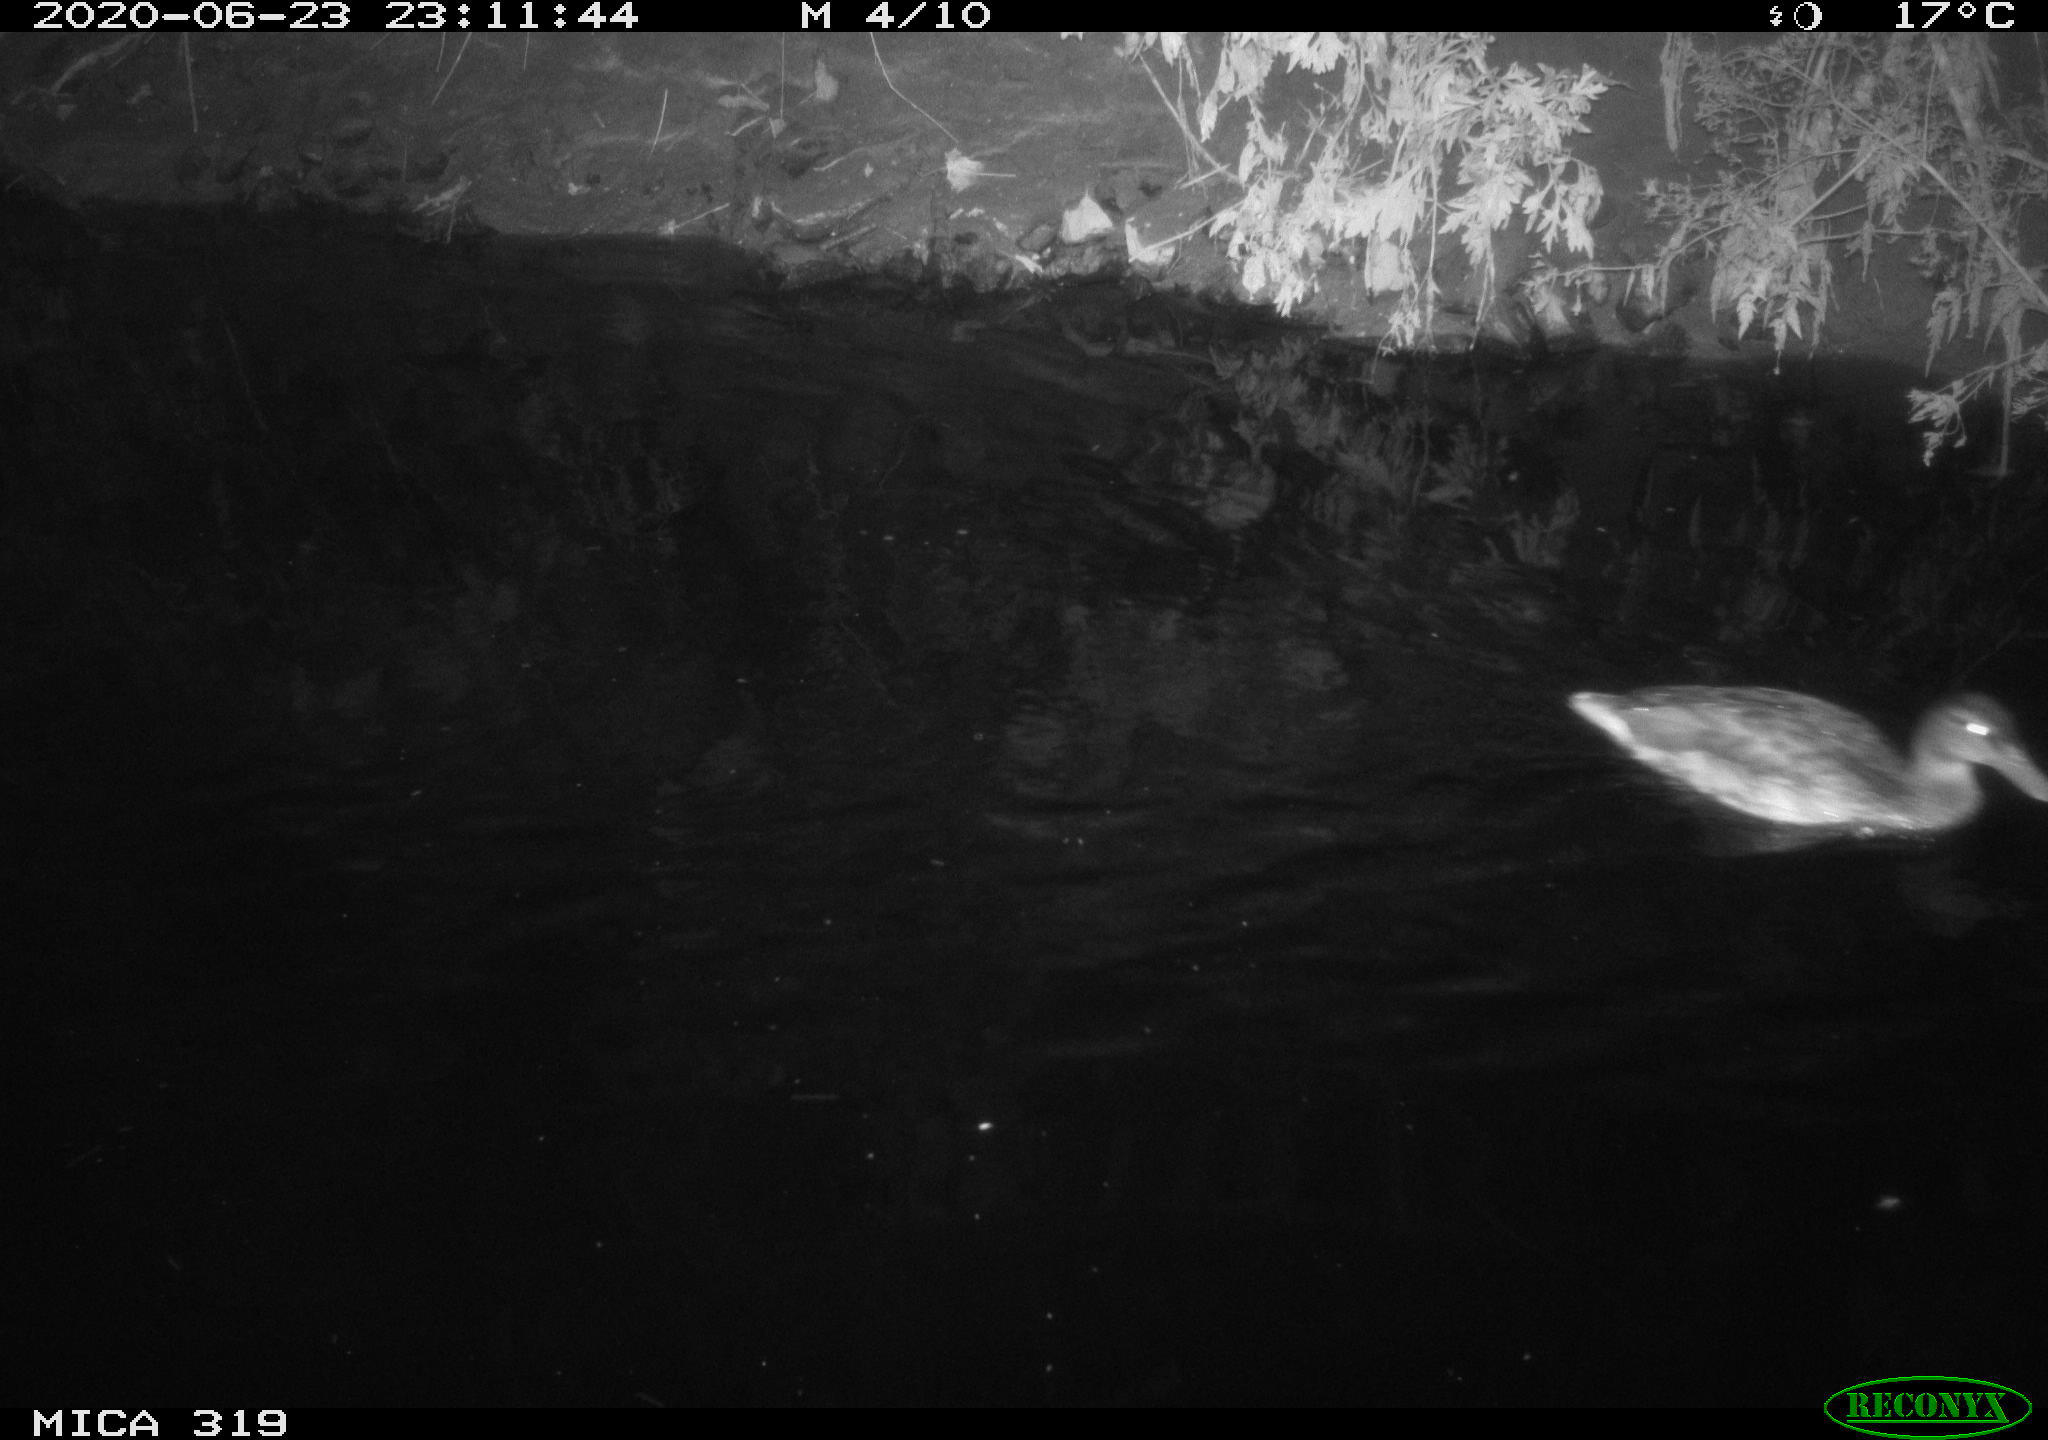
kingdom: Animalia
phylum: Chordata
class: Aves
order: Anseriformes
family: Anatidae
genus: Anas
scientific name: Anas platyrhynchos
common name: Mallard
